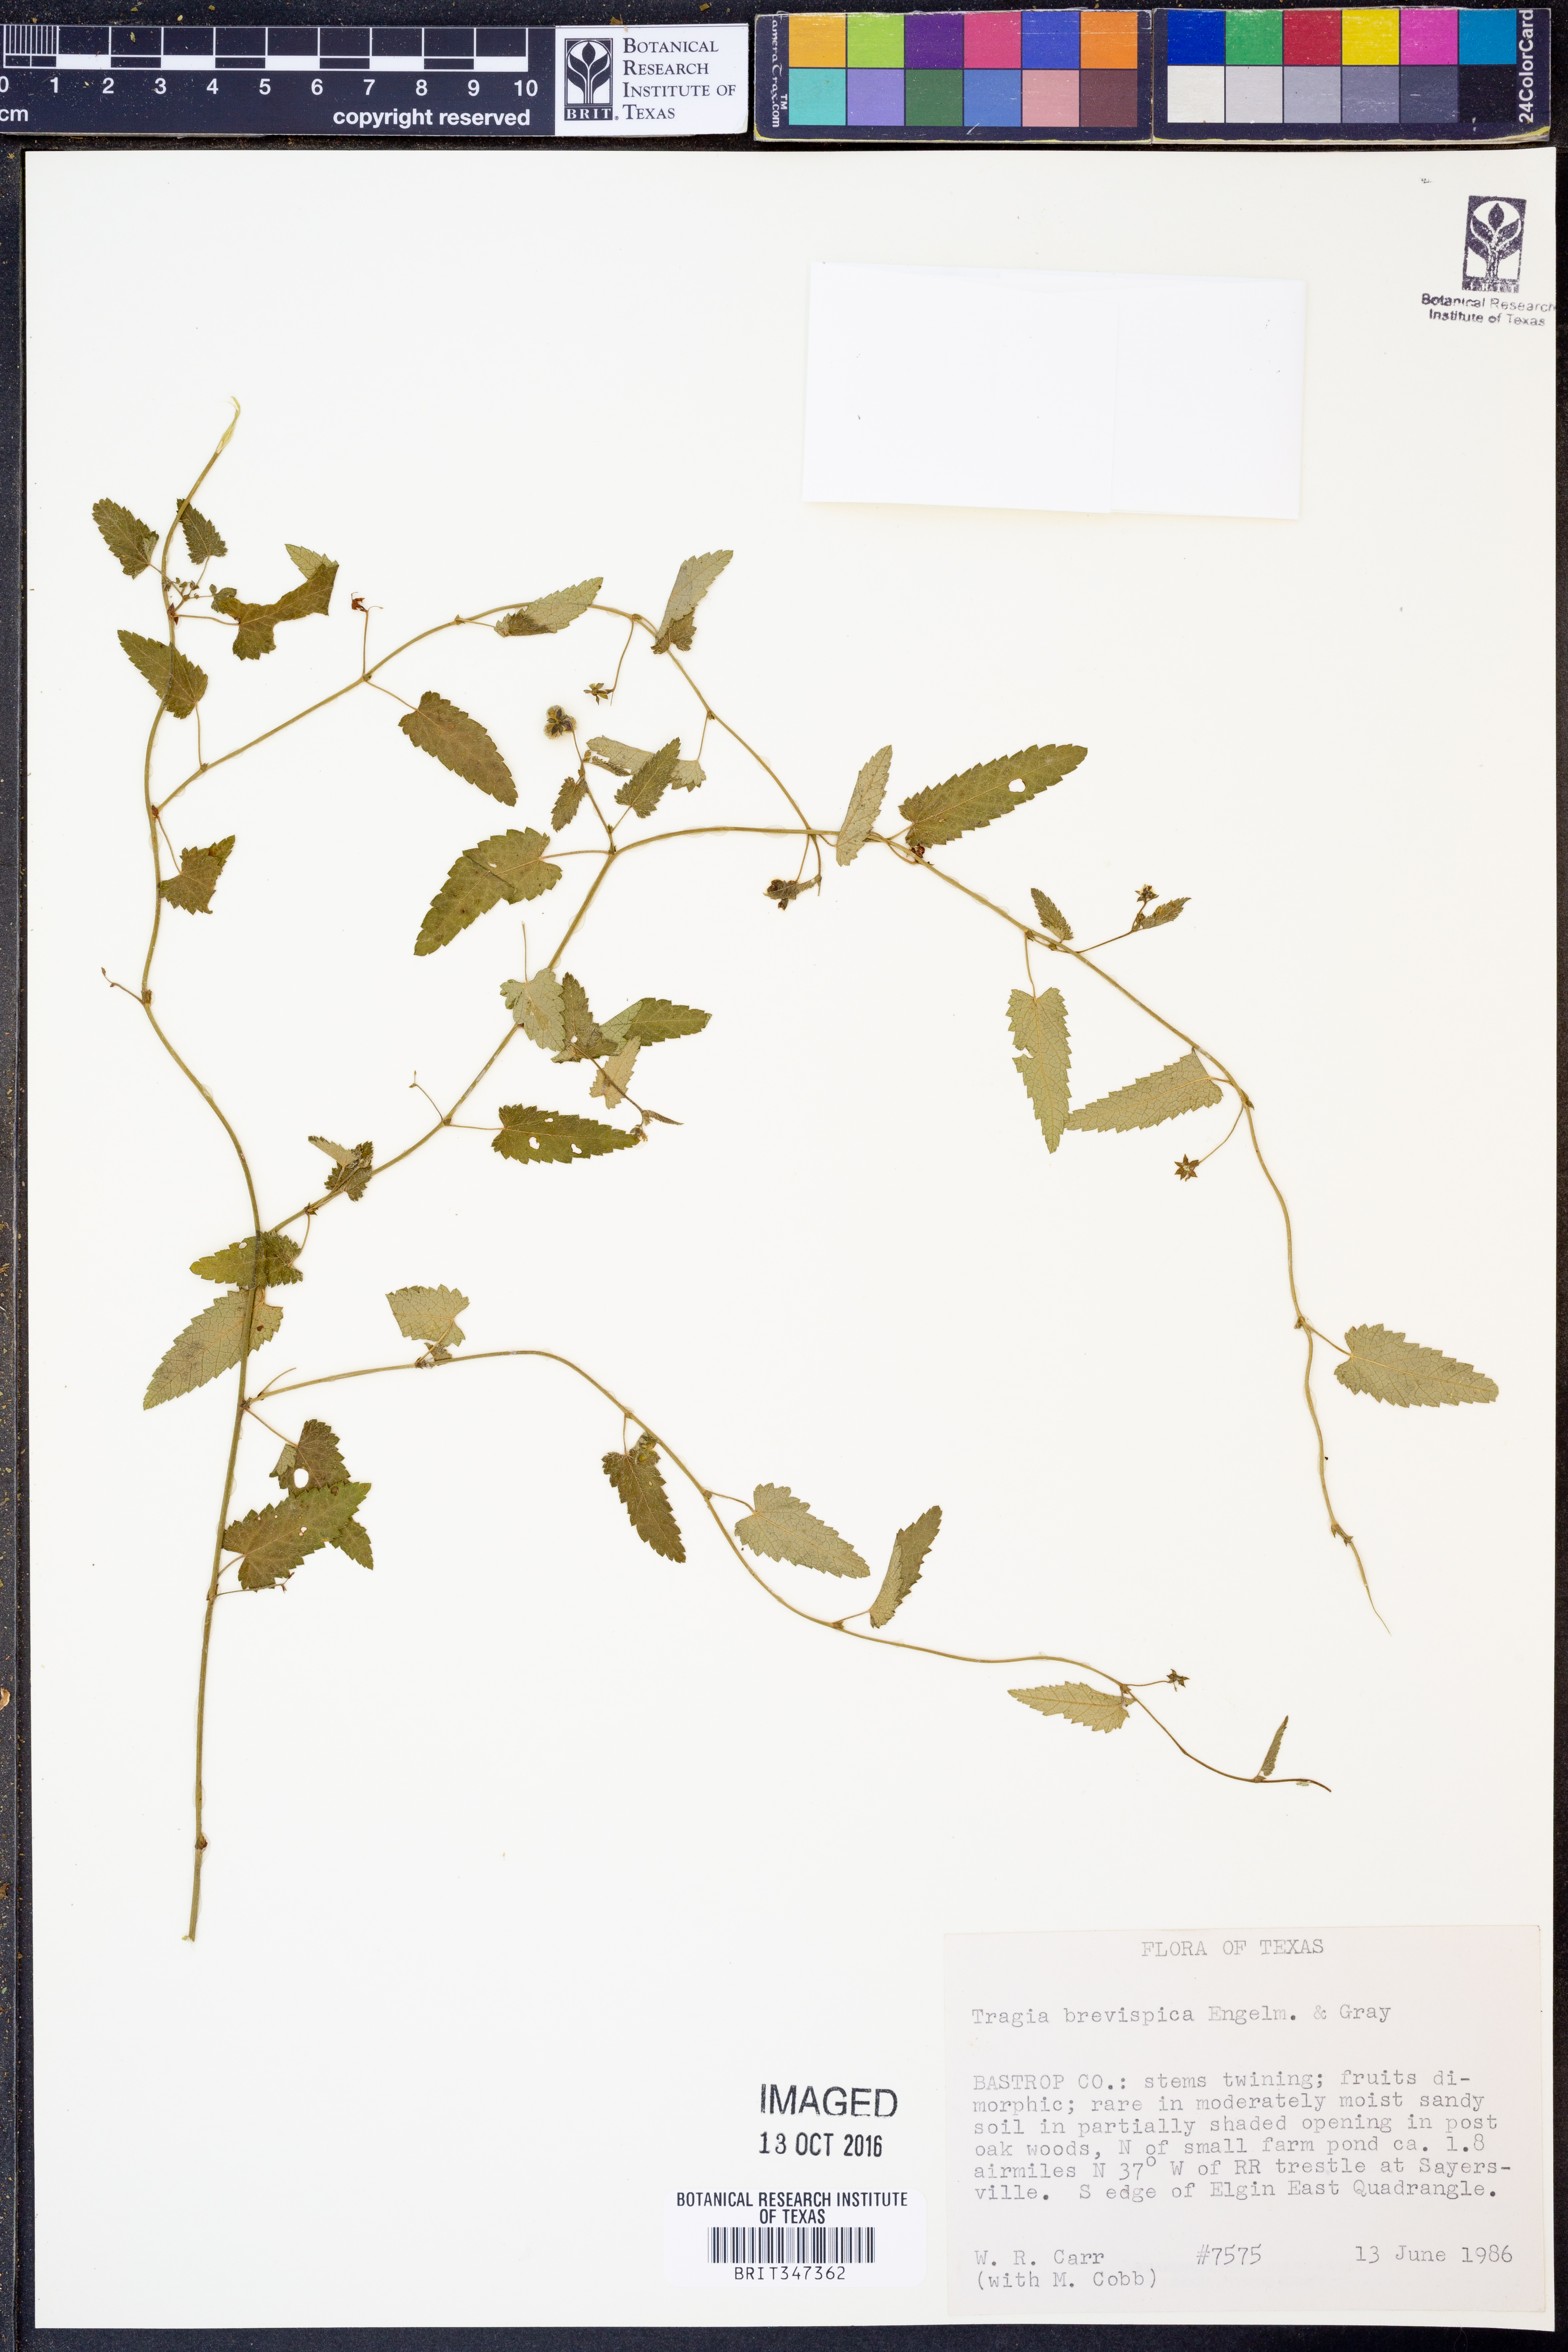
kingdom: Plantae
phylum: Tracheophyta
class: Magnoliopsida
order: Malpighiales
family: Euphorbiaceae
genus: Tragia
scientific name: Tragia brevispica
